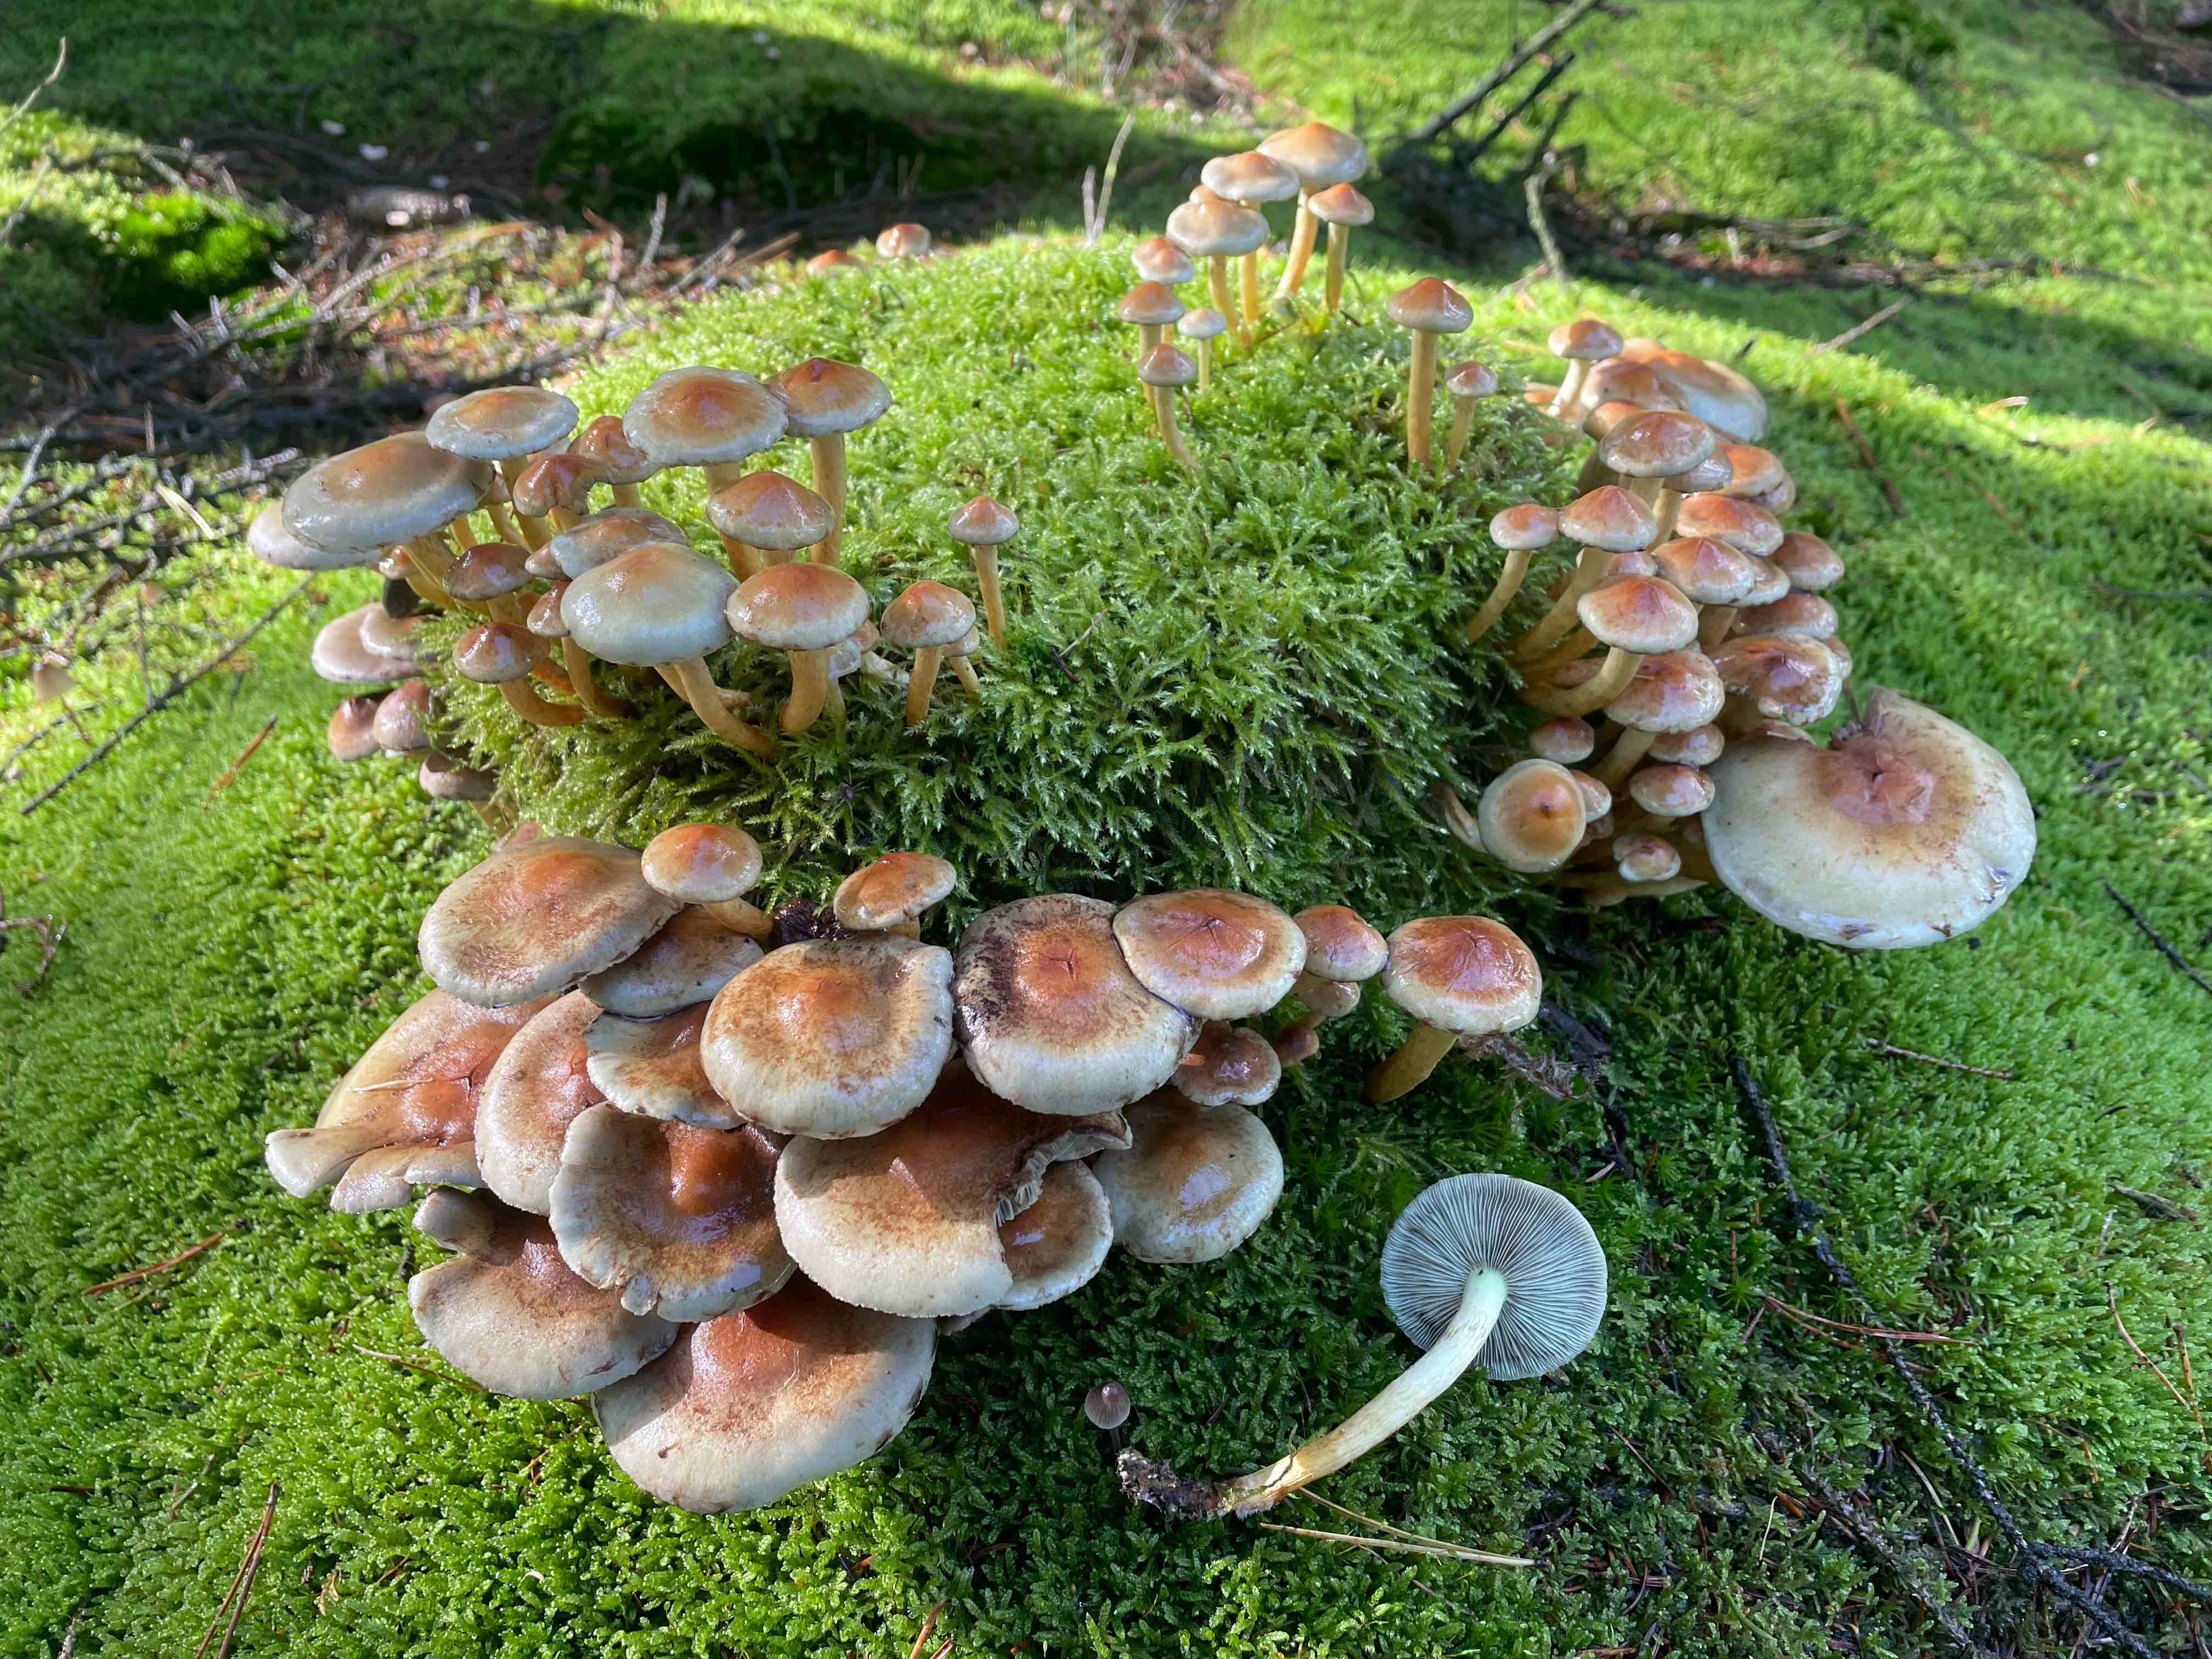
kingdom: Fungi
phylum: Basidiomycota
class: Agaricomycetes
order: Agaricales
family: Strophariaceae
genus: Hypholoma
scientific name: Hypholoma fasciculare
